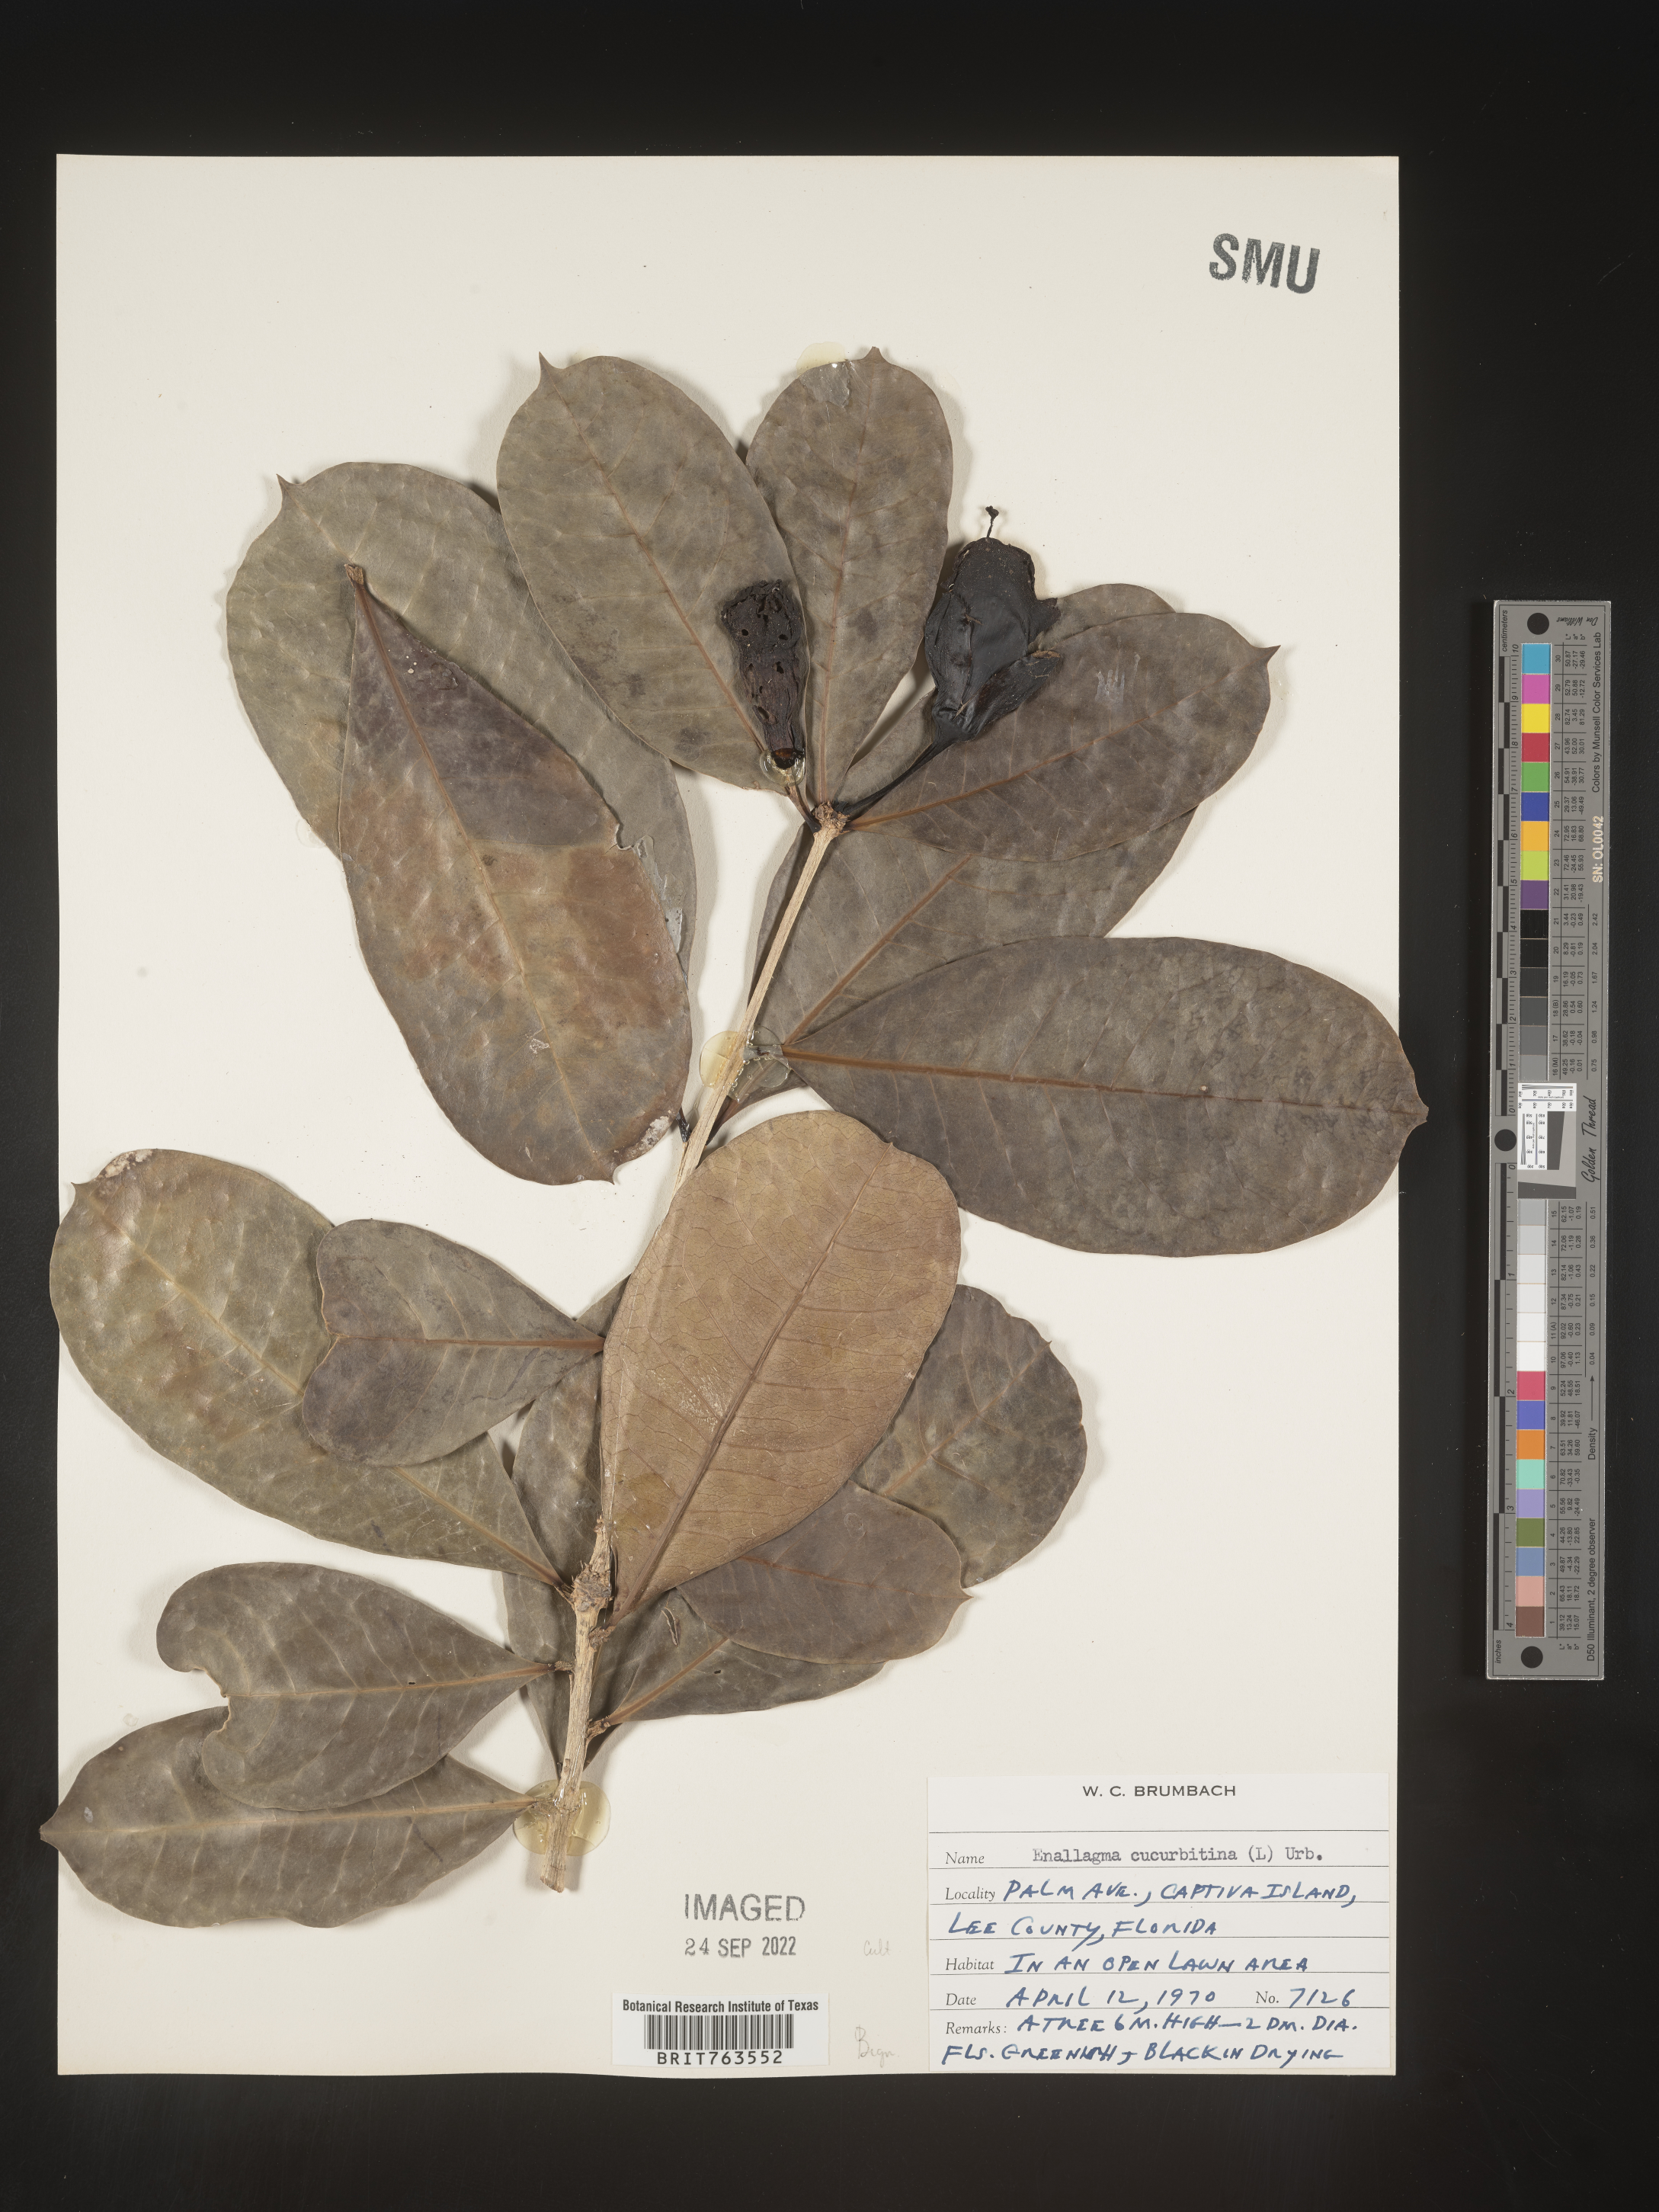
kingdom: Animalia
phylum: Arthropoda
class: Insecta
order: Odonata
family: Coenagrionidae
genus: Enallagma
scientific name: Enallagma
